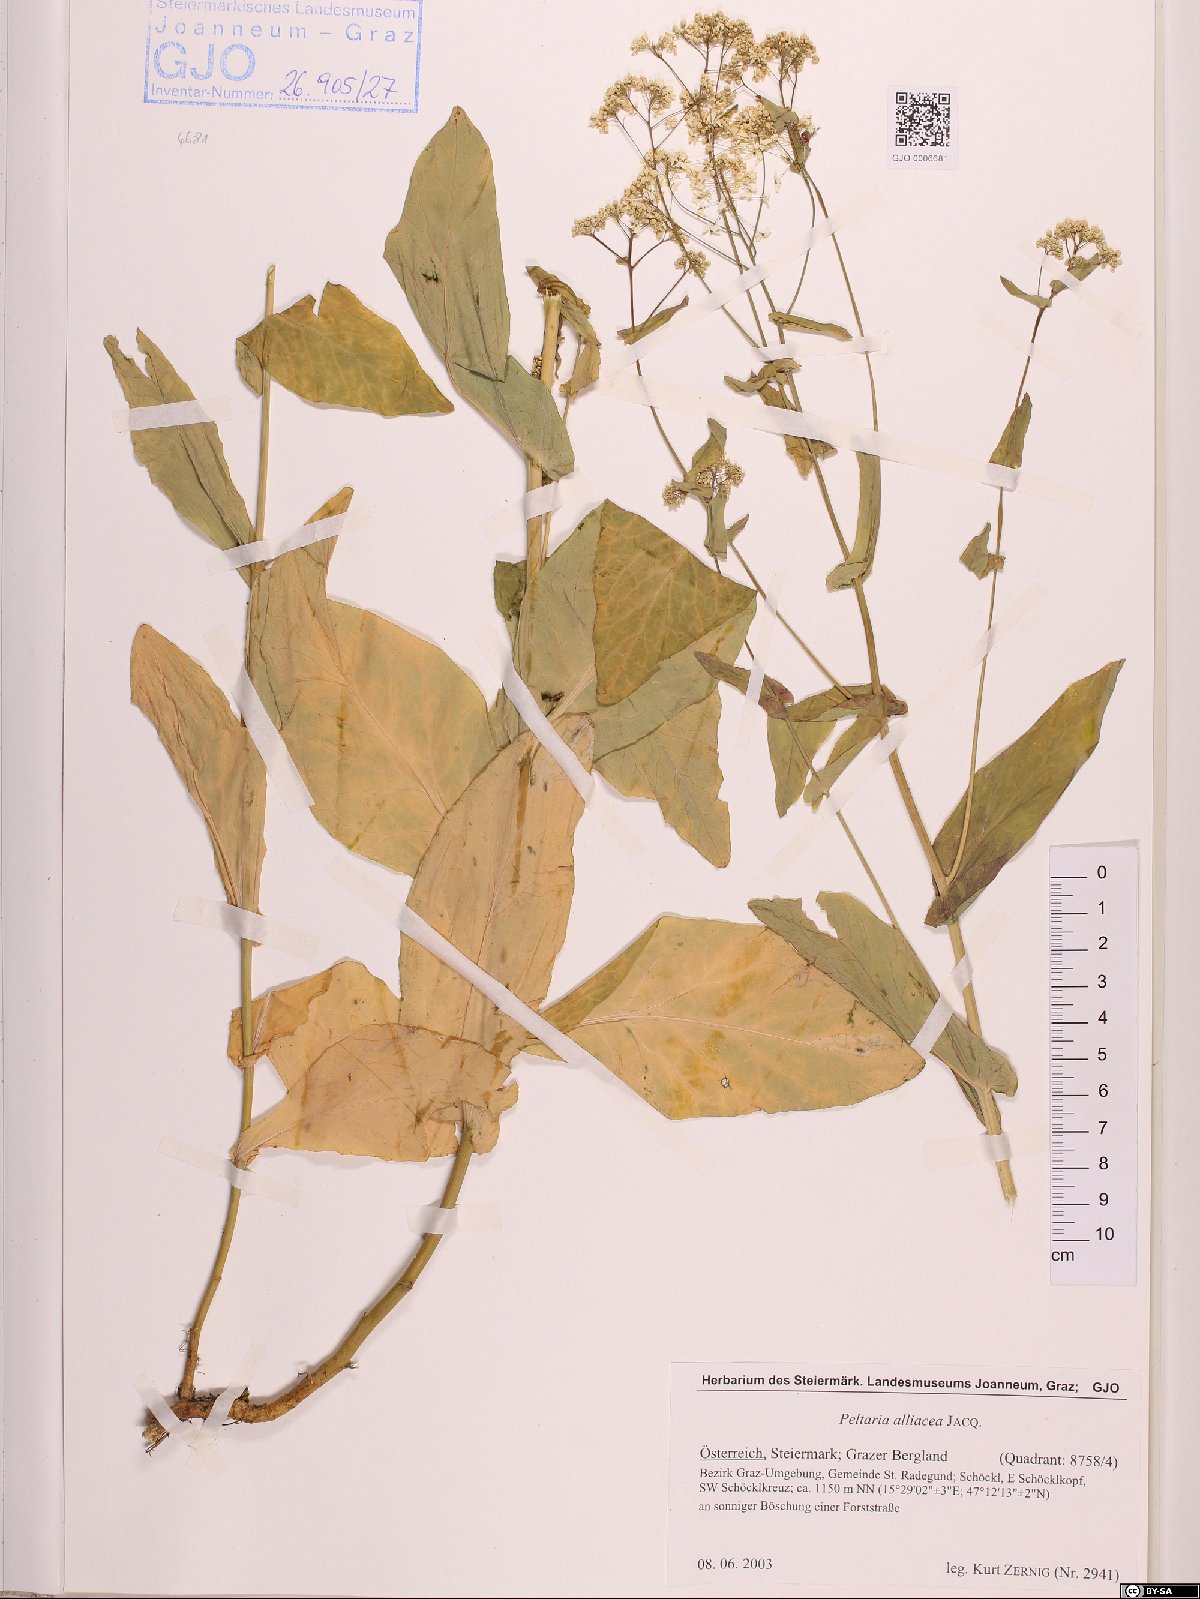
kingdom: Plantae
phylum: Tracheophyta
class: Magnoliopsida
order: Brassicales
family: Brassicaceae
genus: Peltaria
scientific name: Peltaria alliacea
